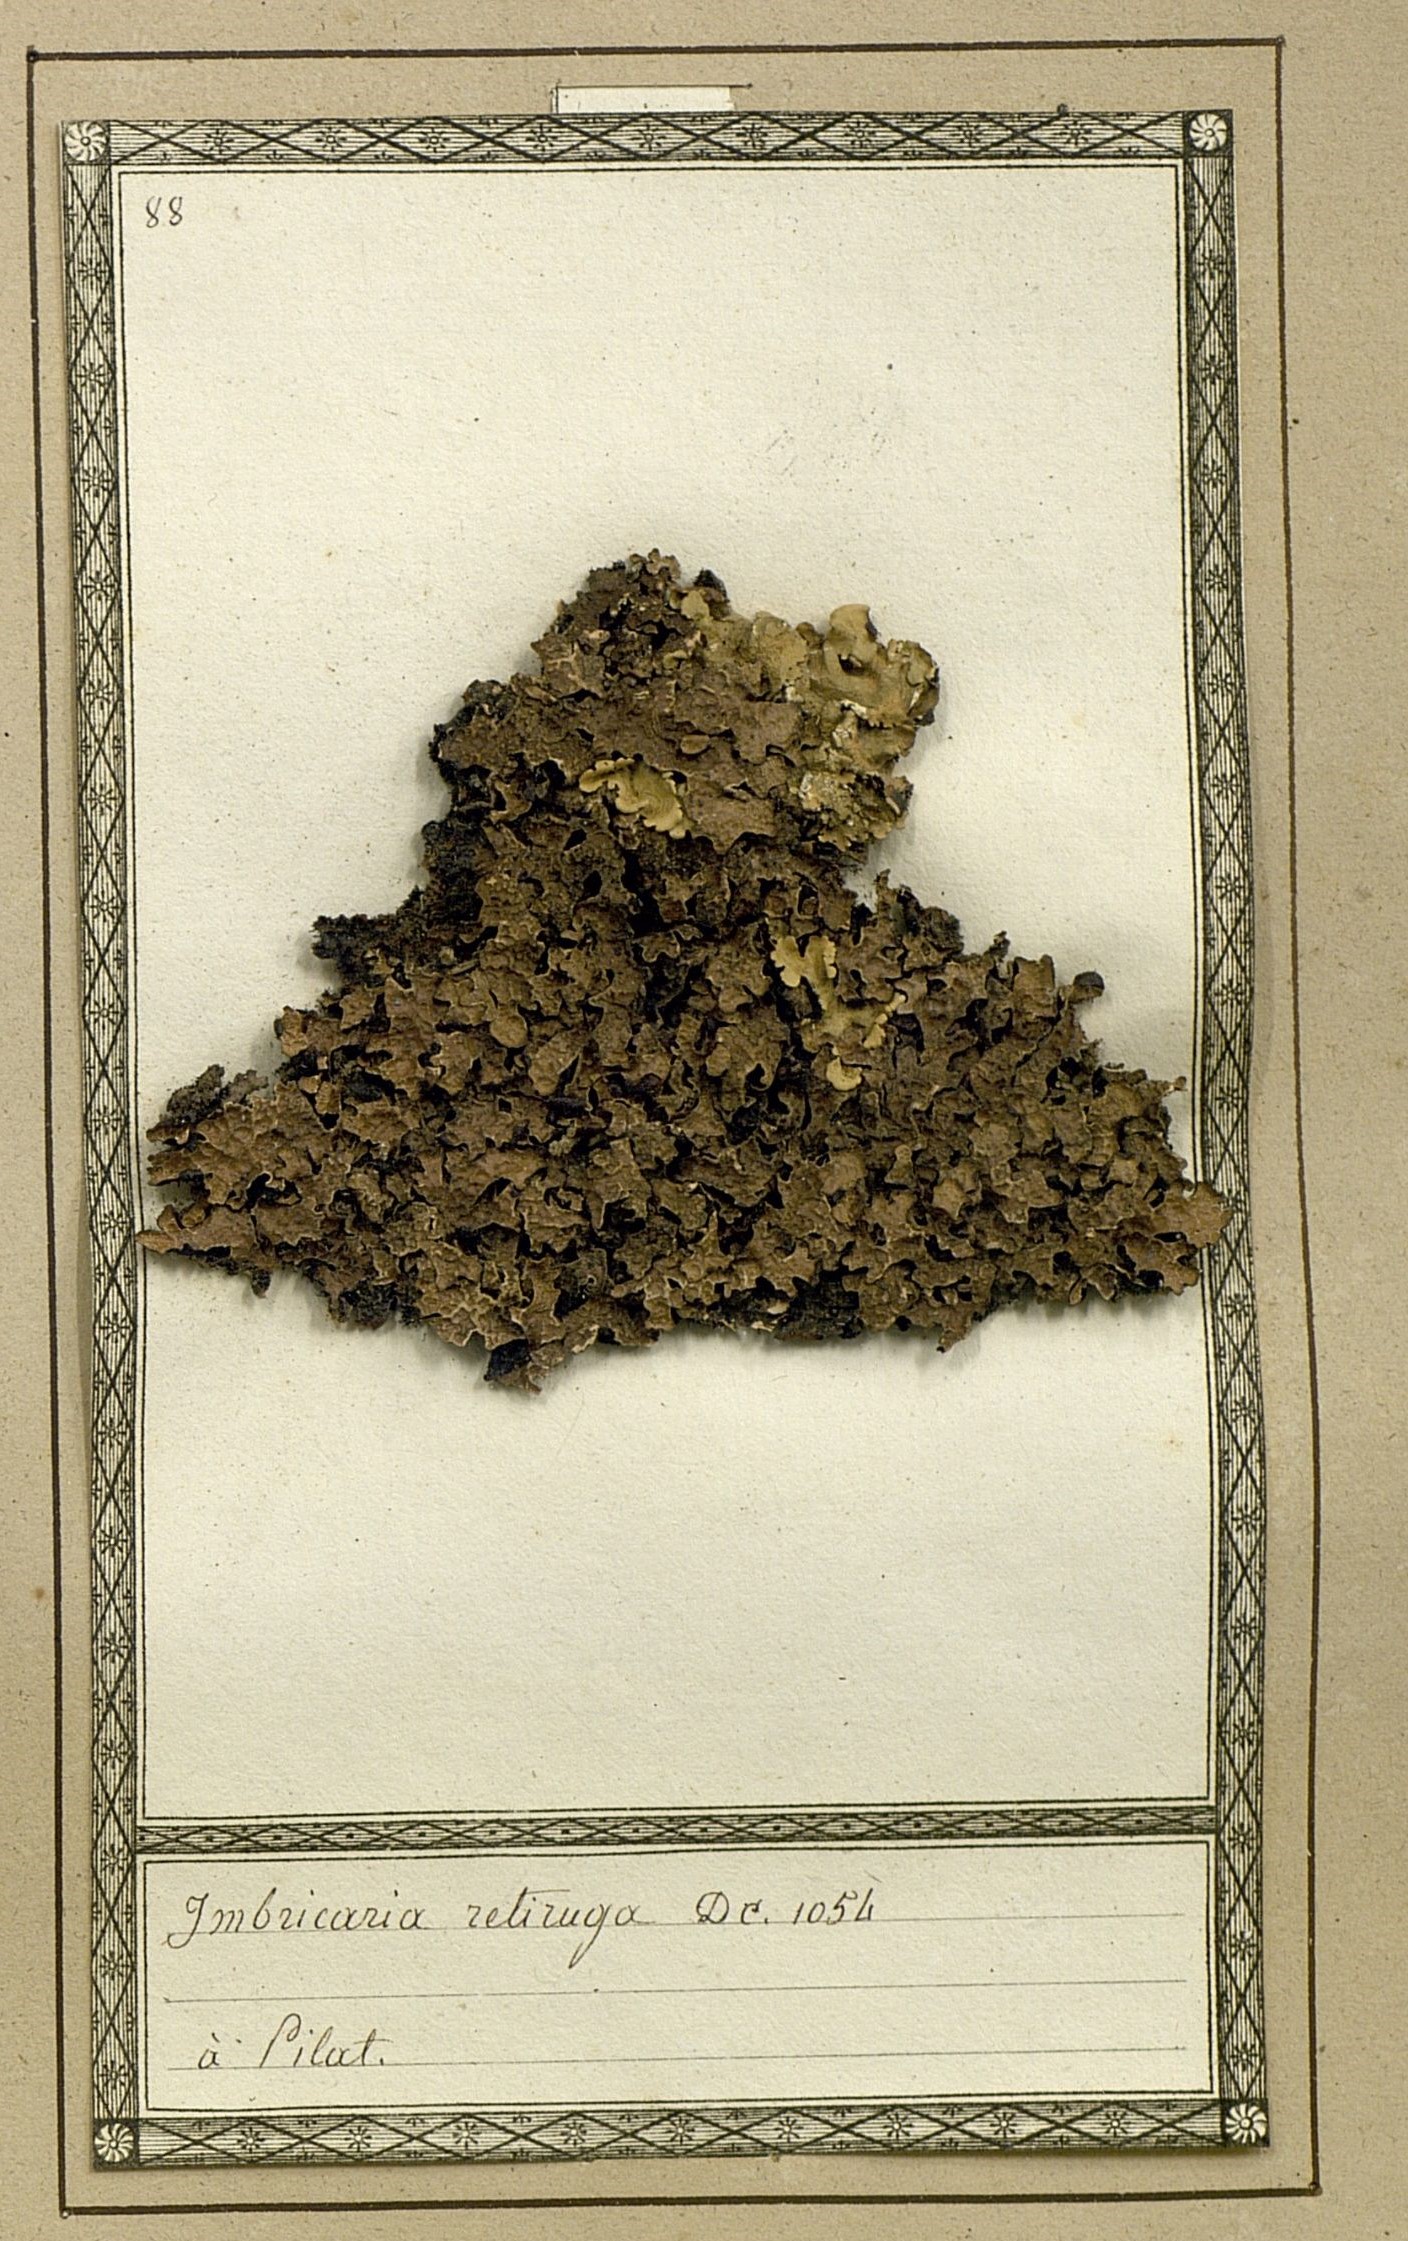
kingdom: Fungi
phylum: Ascomycota
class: Lecanoromycetes
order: Lecanorales
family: Parmeliaceae
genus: Imbricaria
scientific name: Imbricaria
